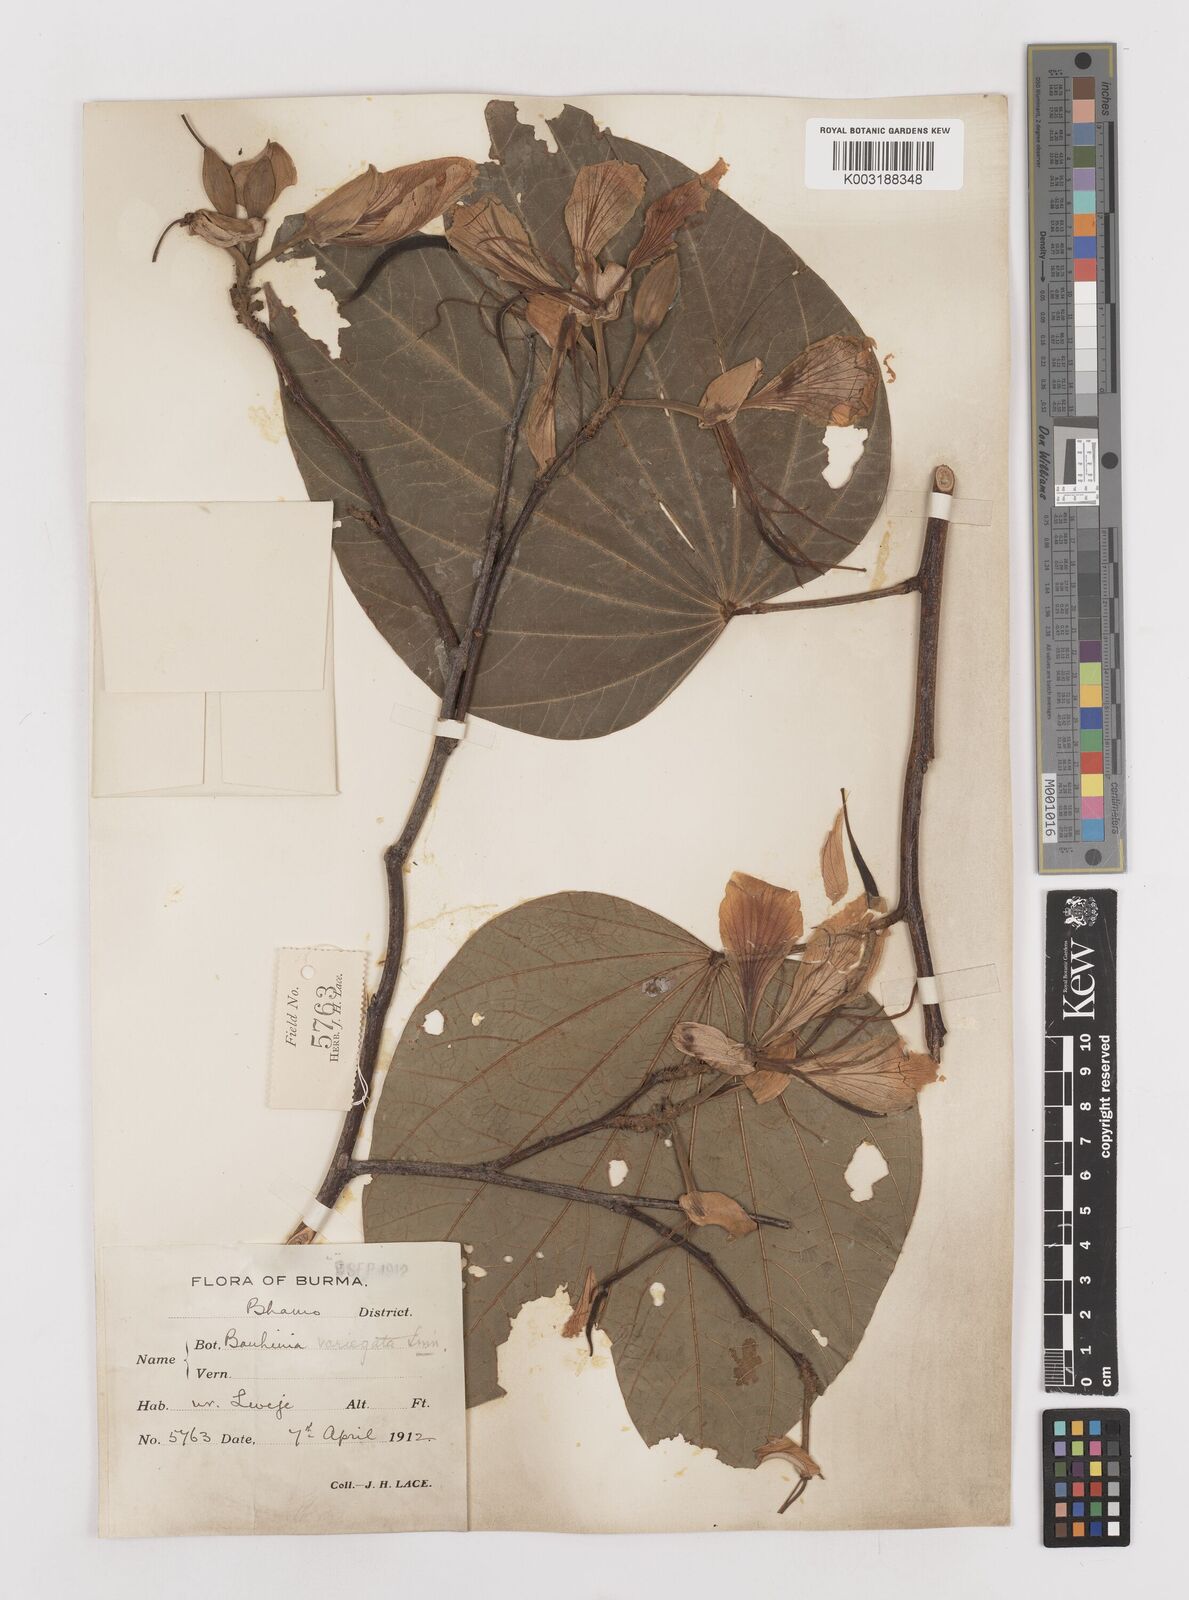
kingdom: Plantae
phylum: Tracheophyta
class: Magnoliopsida
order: Fabales
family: Fabaceae
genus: Bauhinia
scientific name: Bauhinia variegata
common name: Mountain ebony
